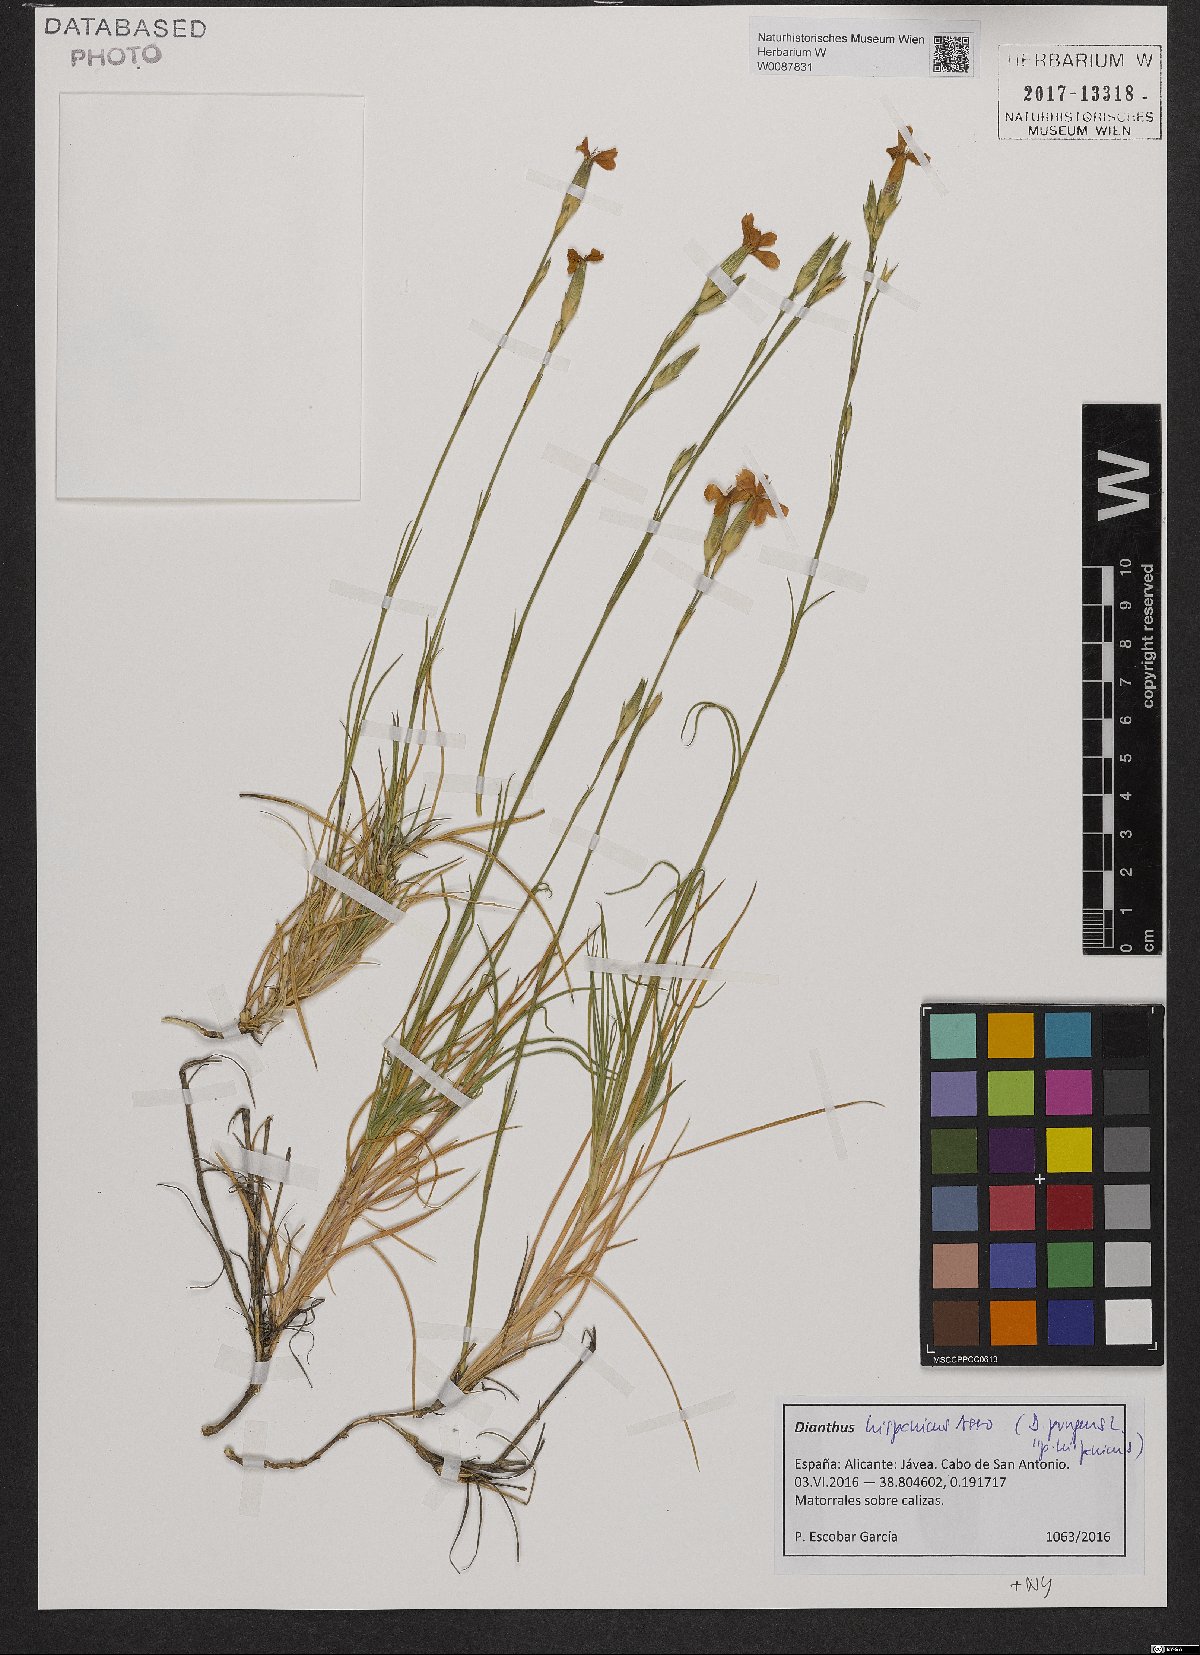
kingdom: Plantae
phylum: Tracheophyta
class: Magnoliopsida
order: Caryophyllales
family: Caryophyllaceae
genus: Dianthus
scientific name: Dianthus pungens
